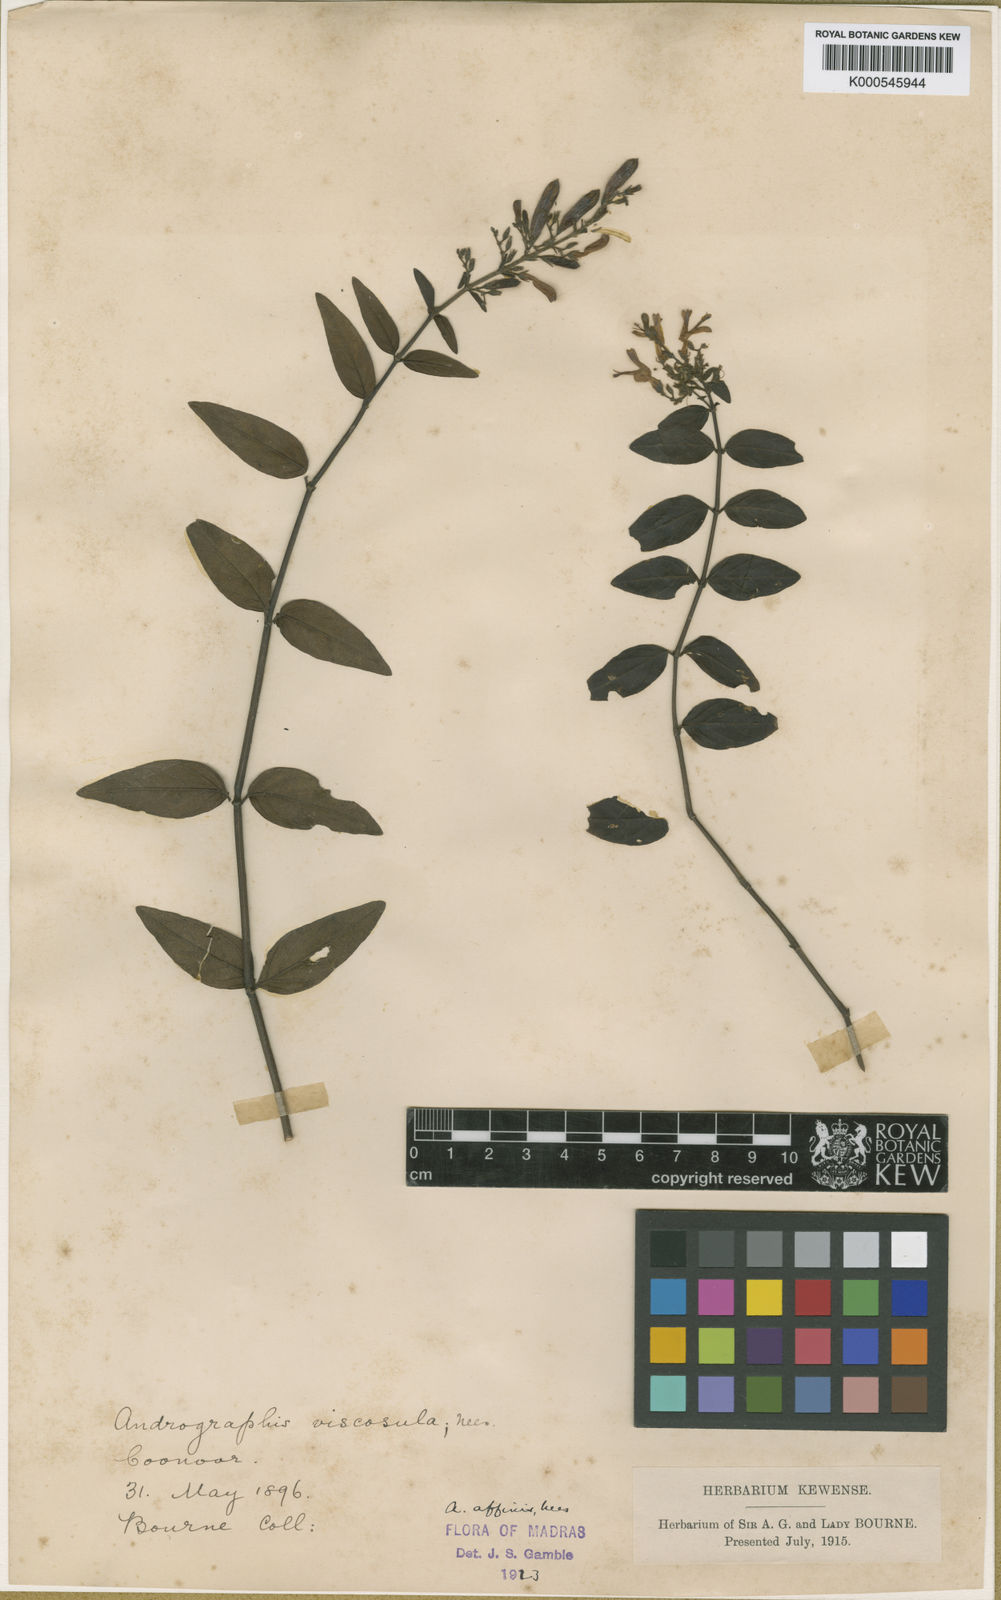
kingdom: Plantae
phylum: Tracheophyta
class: Magnoliopsida
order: Lamiales
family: Acanthaceae
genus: Andrographis
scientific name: Andrographis affinis
